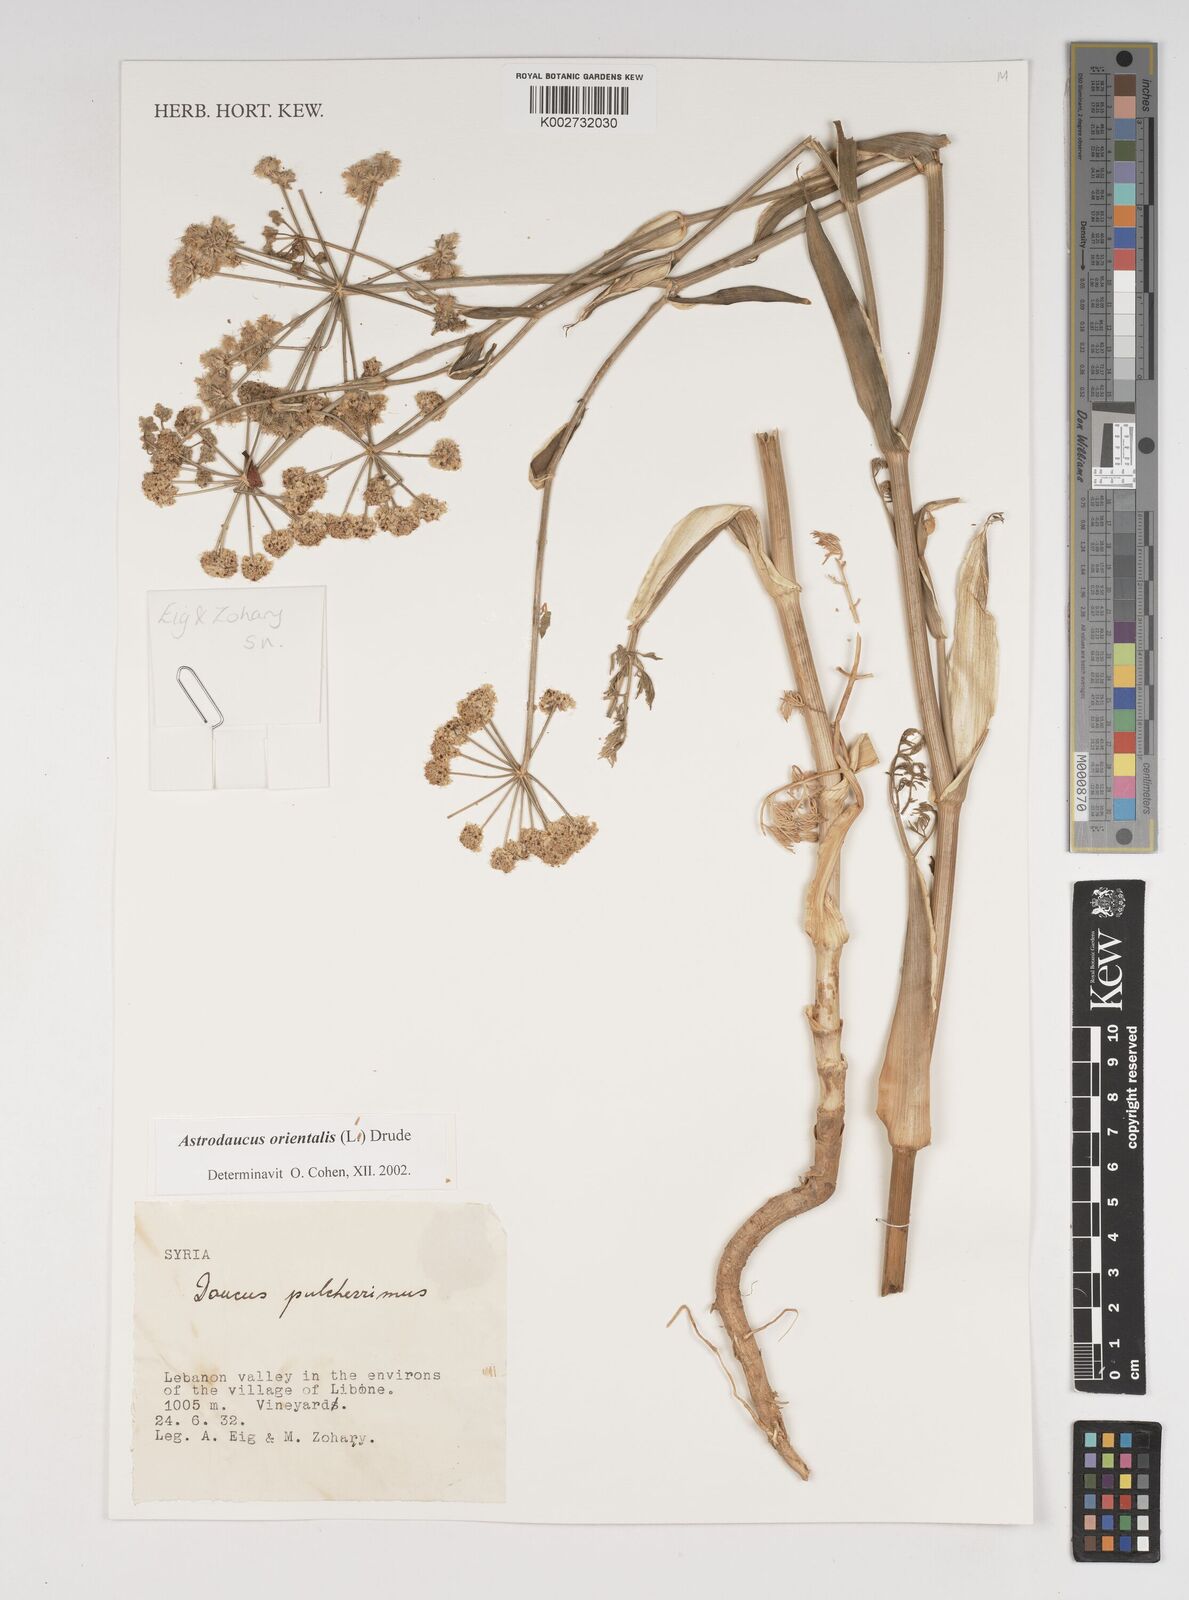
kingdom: Plantae
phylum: Tracheophyta
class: Magnoliopsida
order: Apiales
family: Apiaceae
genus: Astrodaucus
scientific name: Astrodaucus
